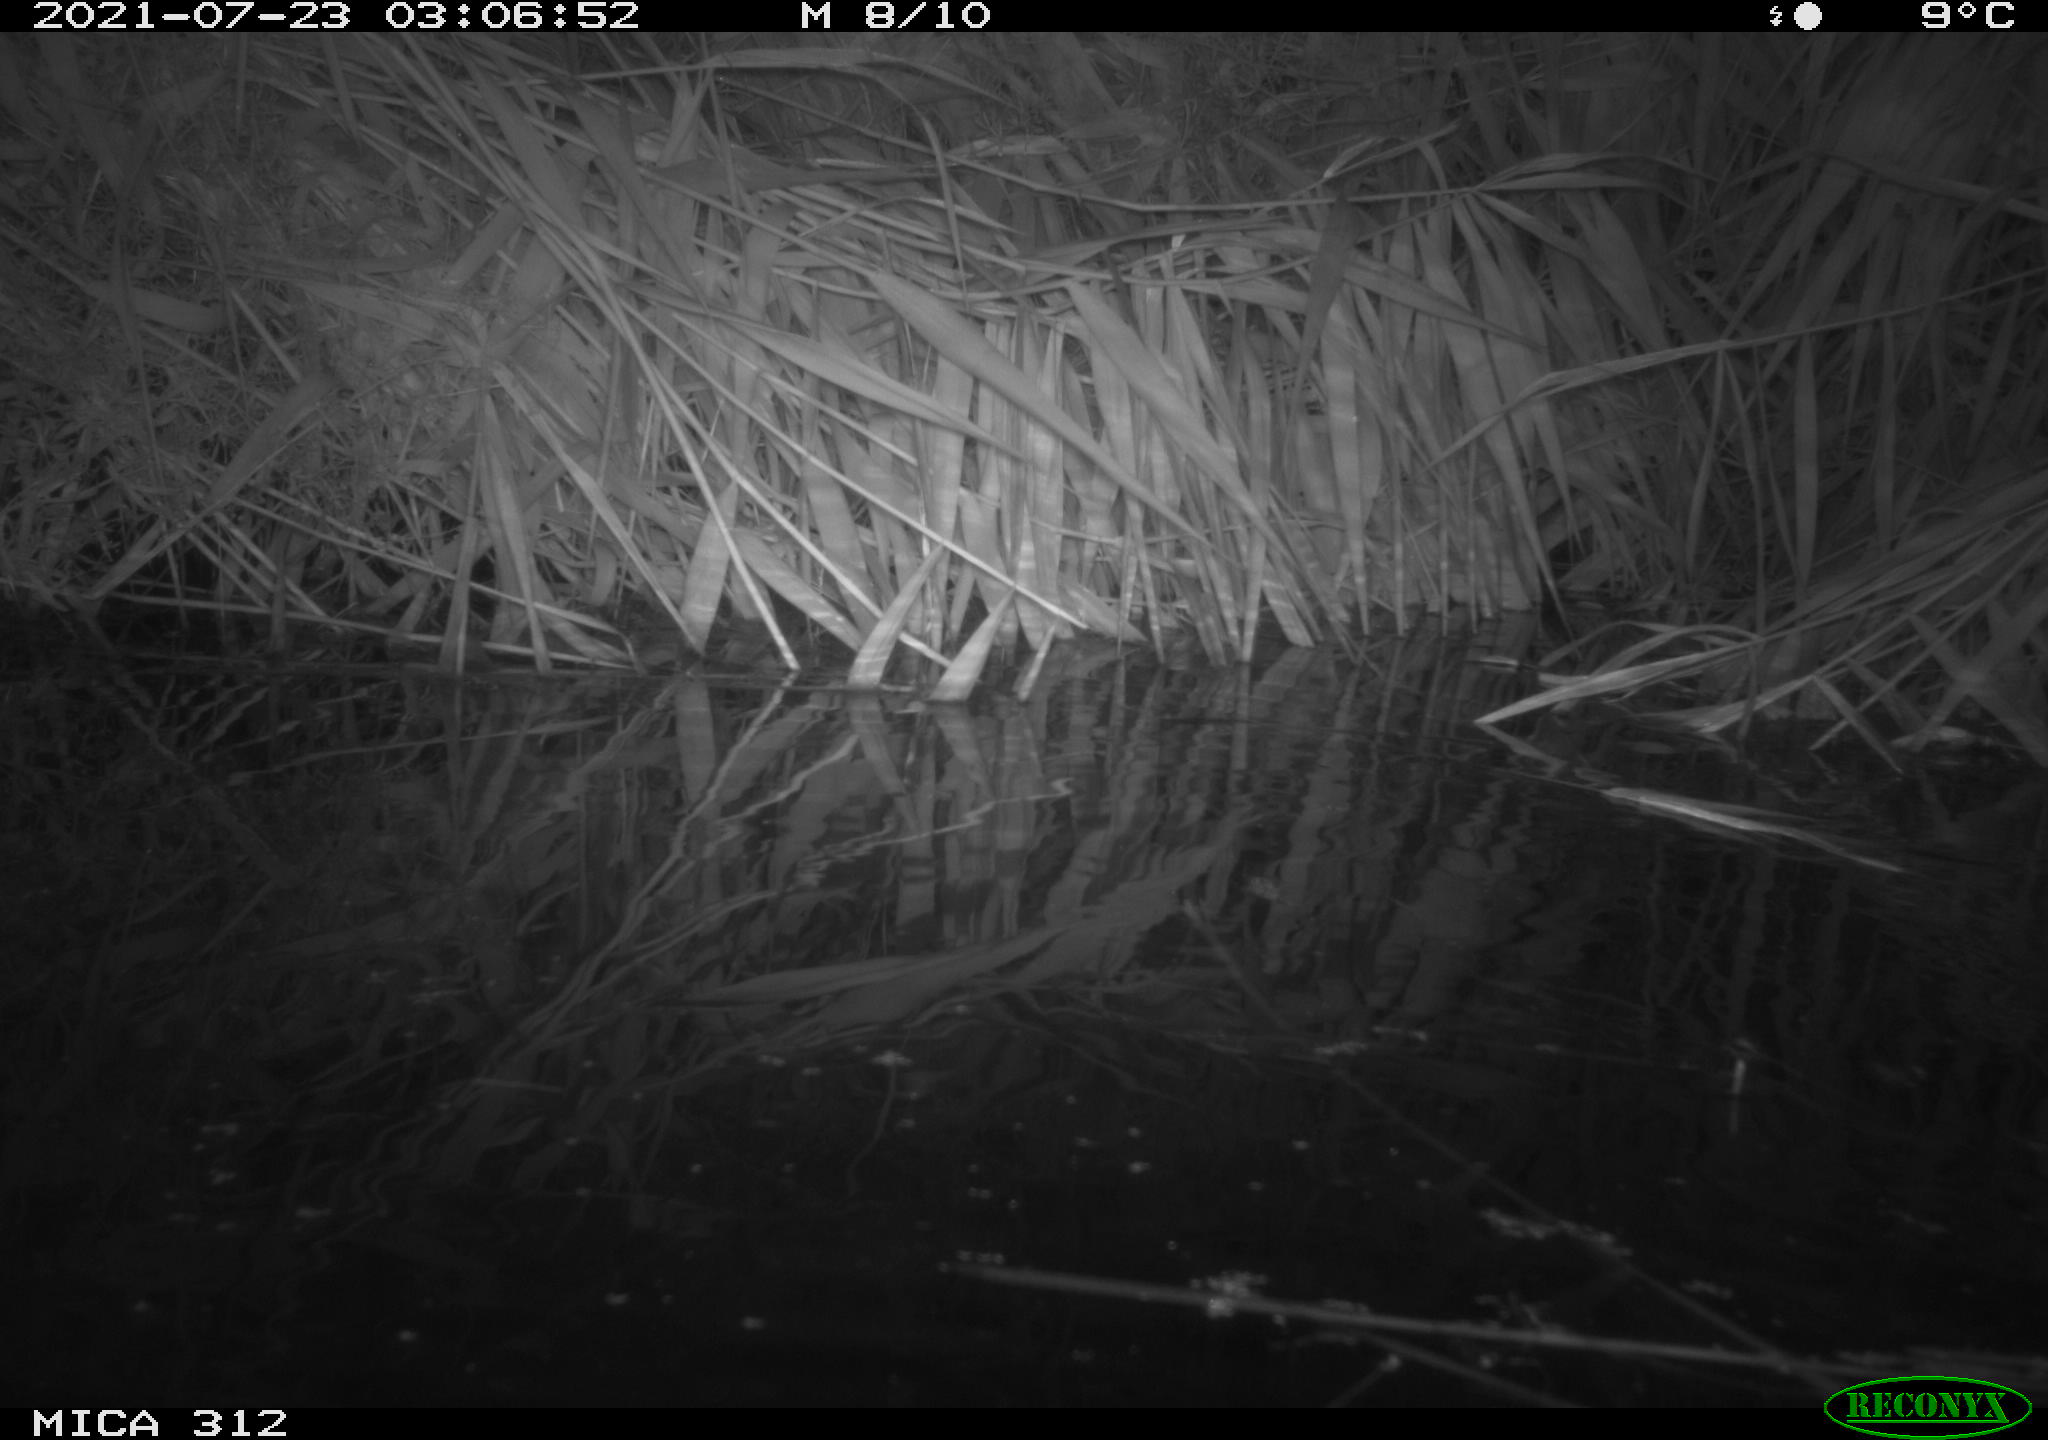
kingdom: Animalia
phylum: Chordata
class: Mammalia
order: Rodentia
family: Muridae
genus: Rattus
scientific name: Rattus norvegicus
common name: Brown rat
